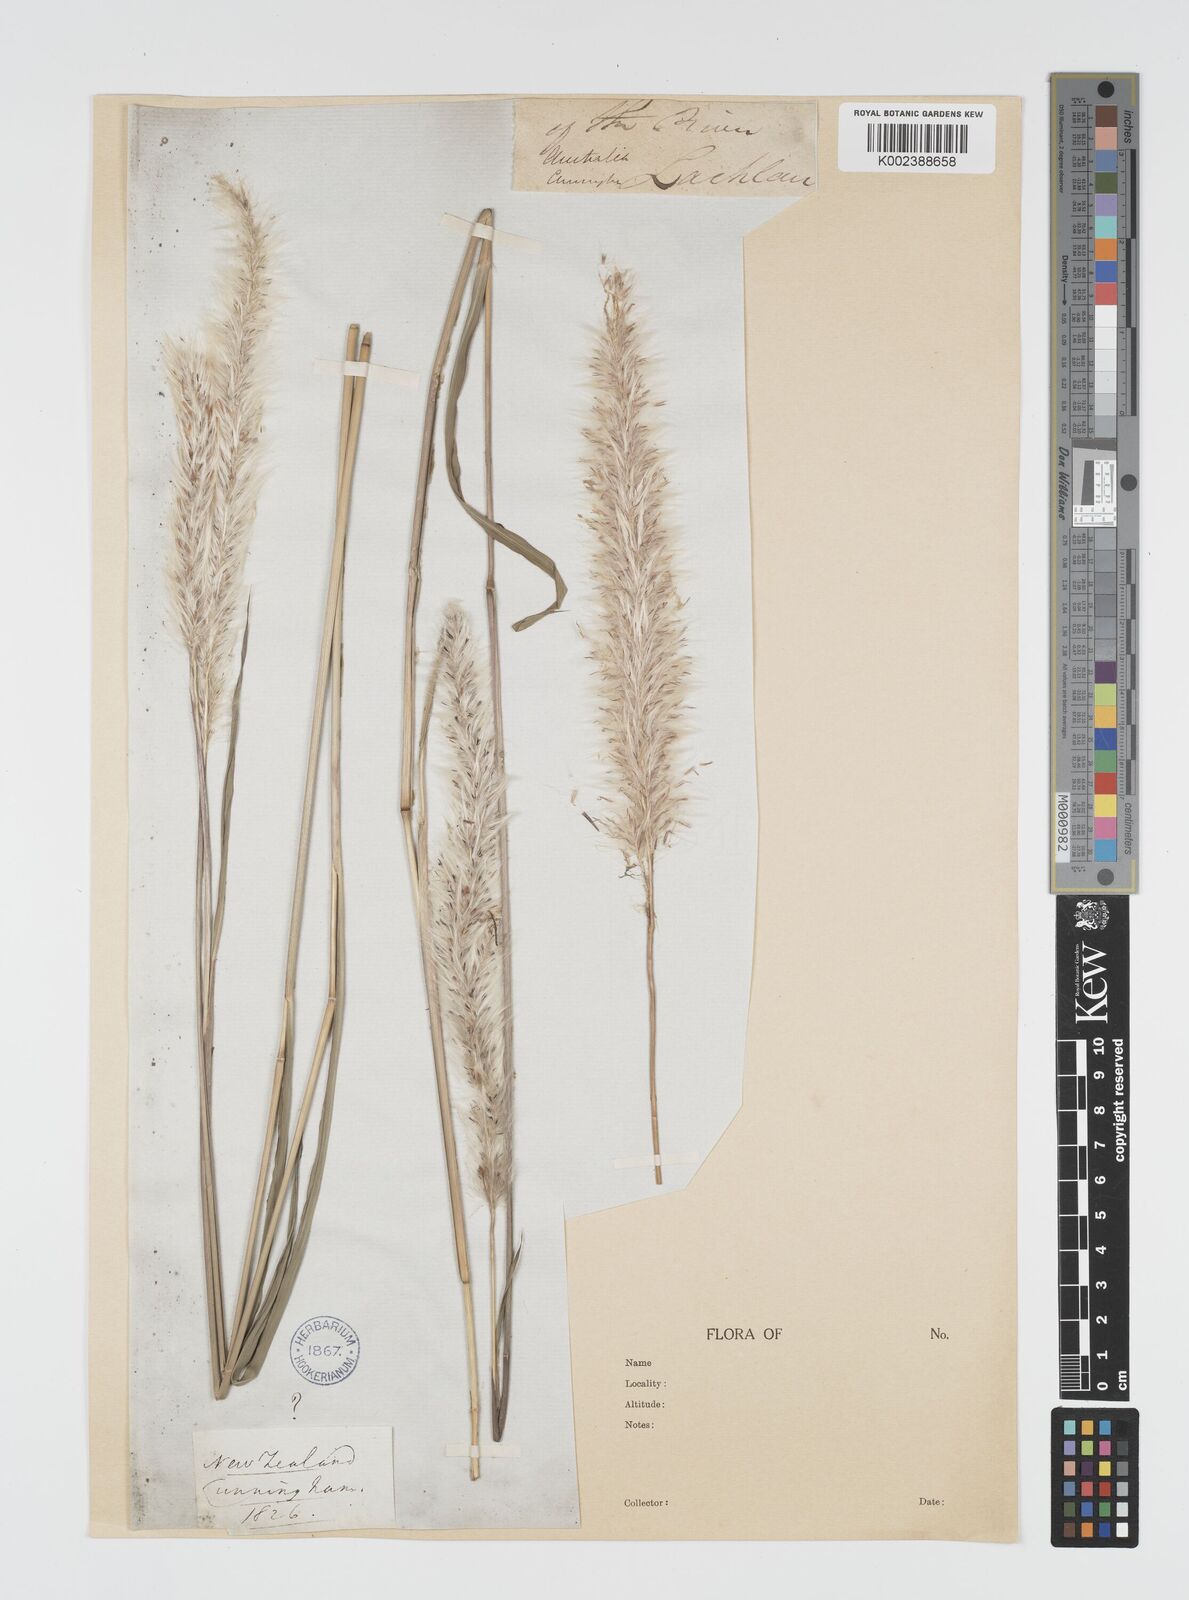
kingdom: Plantae
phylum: Tracheophyta
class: Liliopsida
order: Poales
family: Poaceae
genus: Imperata
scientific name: Imperata cylindrica
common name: Cogongrass
